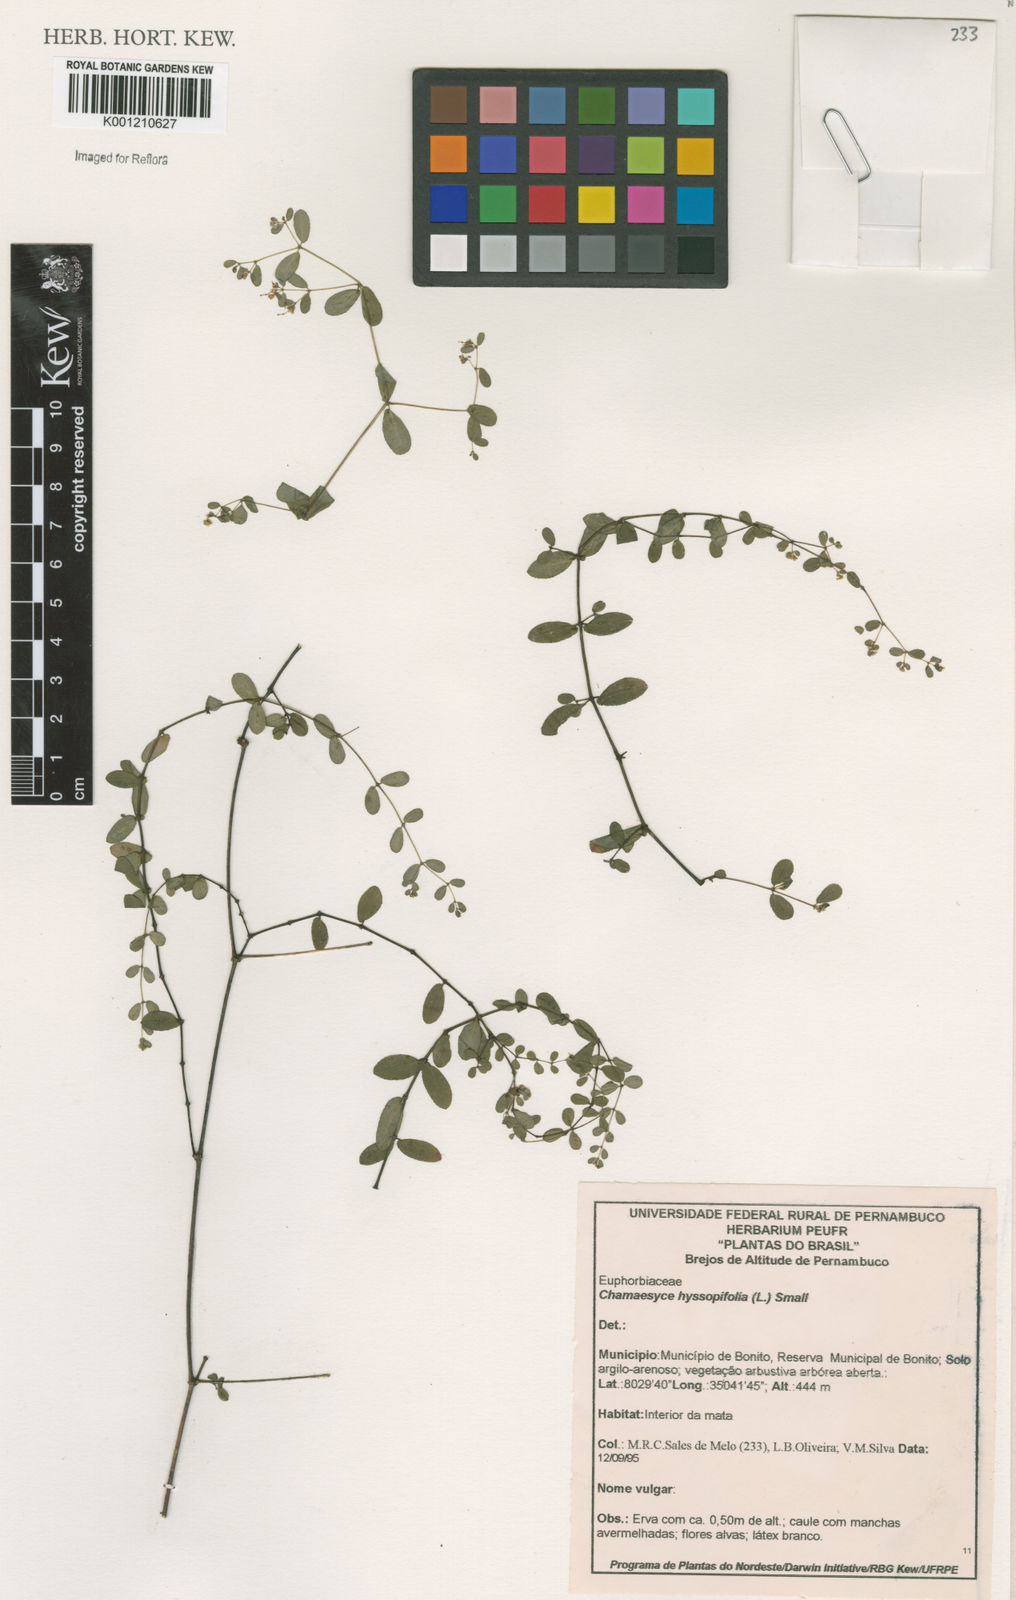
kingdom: Plantae
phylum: Tracheophyta
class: Magnoliopsida
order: Malpighiales
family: Euphorbiaceae
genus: Euphorbia
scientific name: Euphorbia hyssopifolia
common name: Hyssopleaf sandmat
